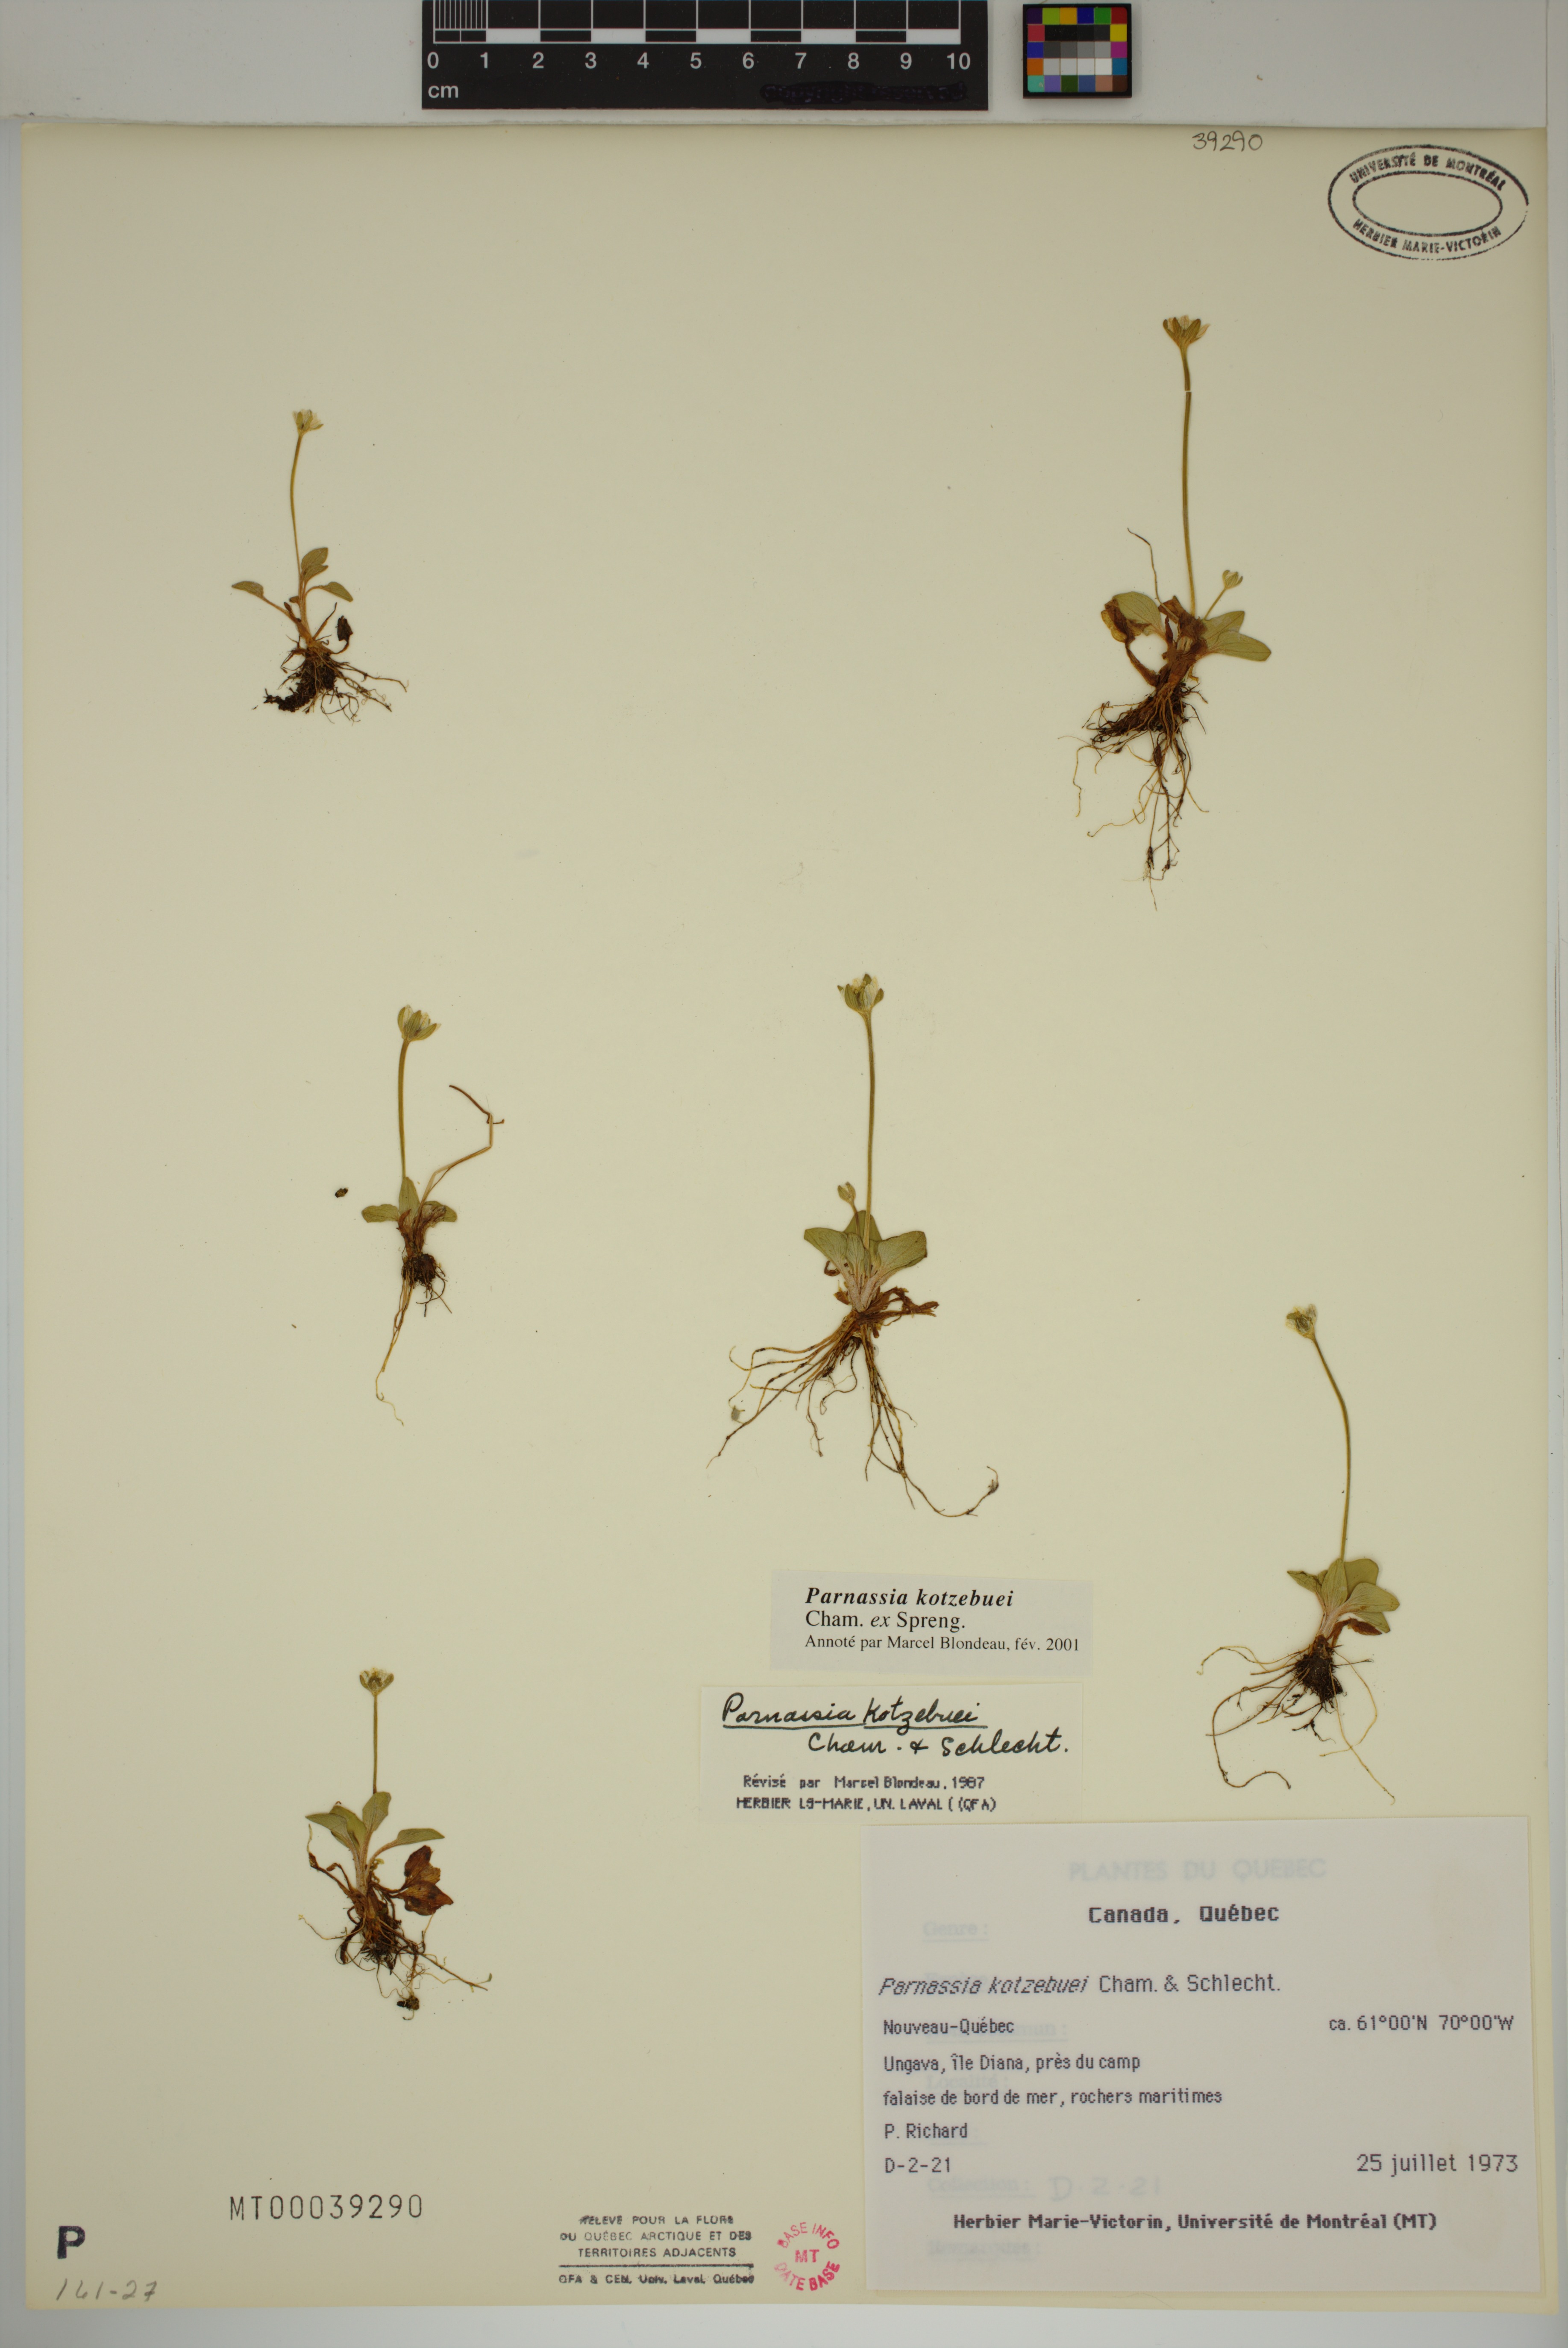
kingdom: Plantae
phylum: Tracheophyta
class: Magnoliopsida
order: Celastrales
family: Parnassiaceae
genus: Parnassia
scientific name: Parnassia kotzebuei
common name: Kotzebue's grass-of-parnassus
